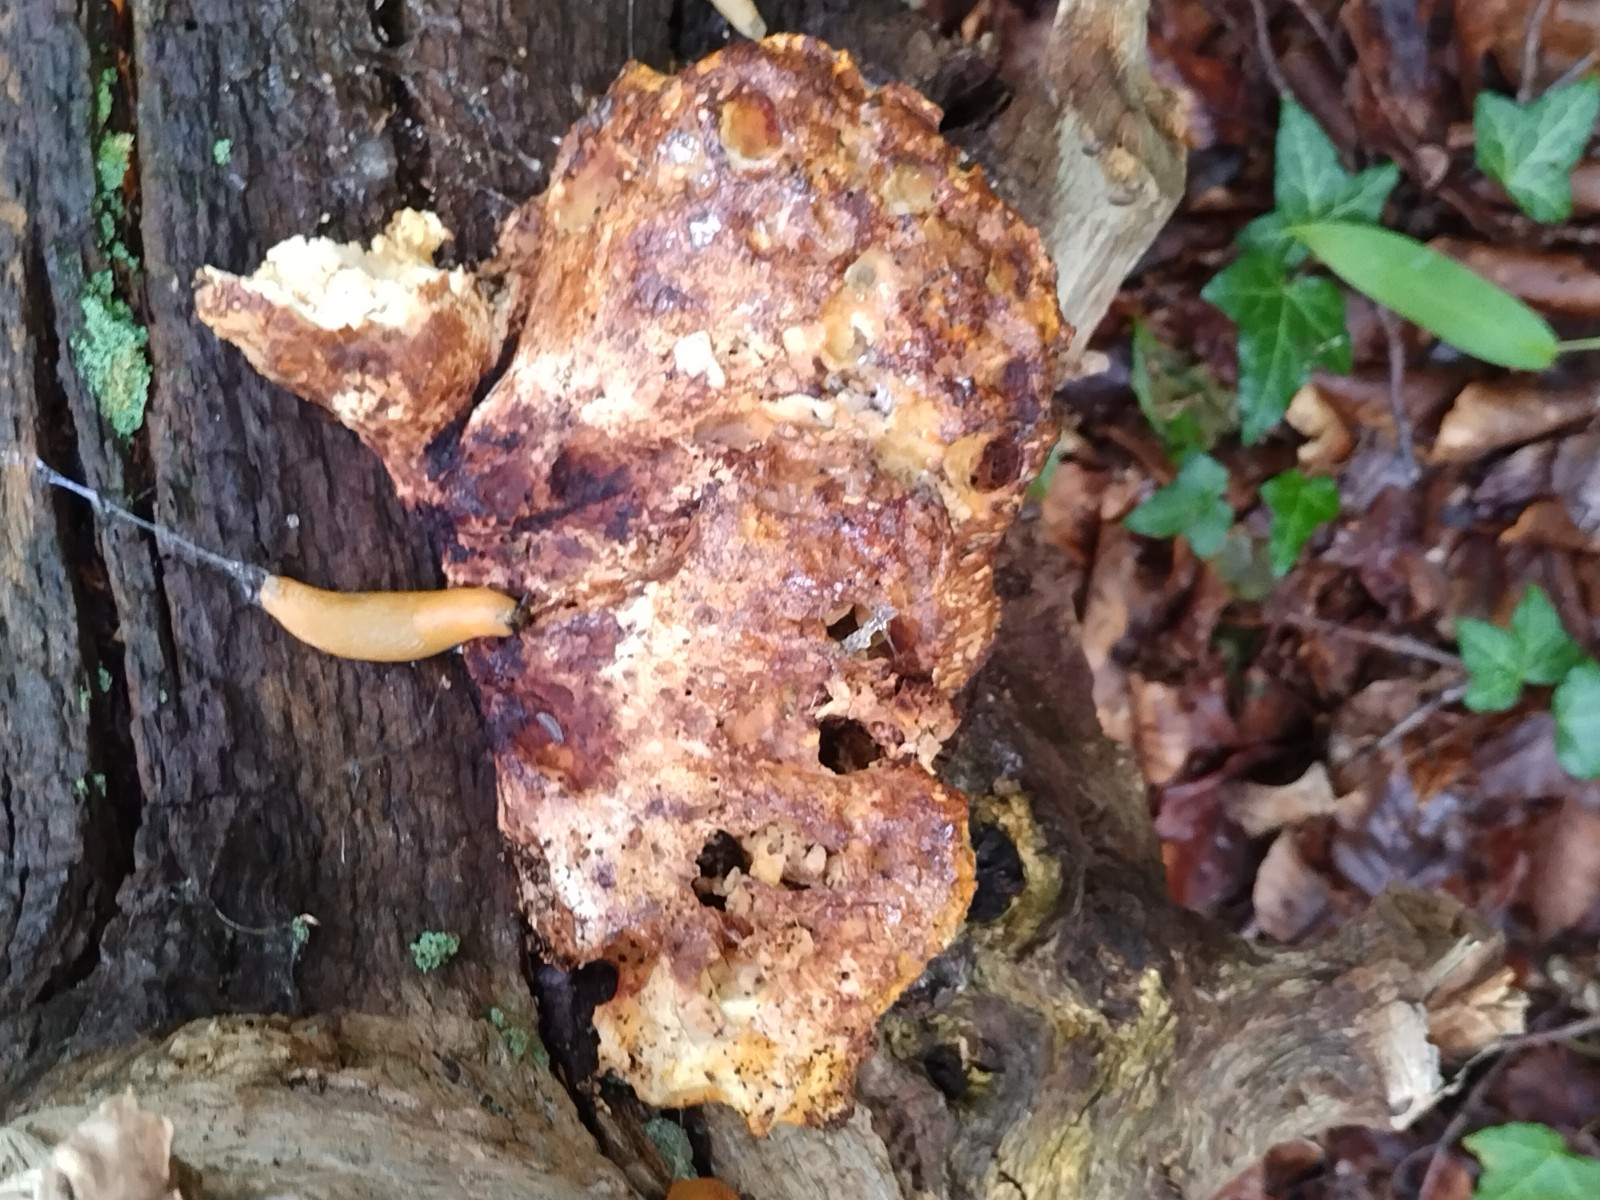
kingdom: Fungi
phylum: Basidiomycota
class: Agaricomycetes
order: Polyporales
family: Laetiporaceae
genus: Laetiporus
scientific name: Laetiporus sulphureus
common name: svovlporesvamp
